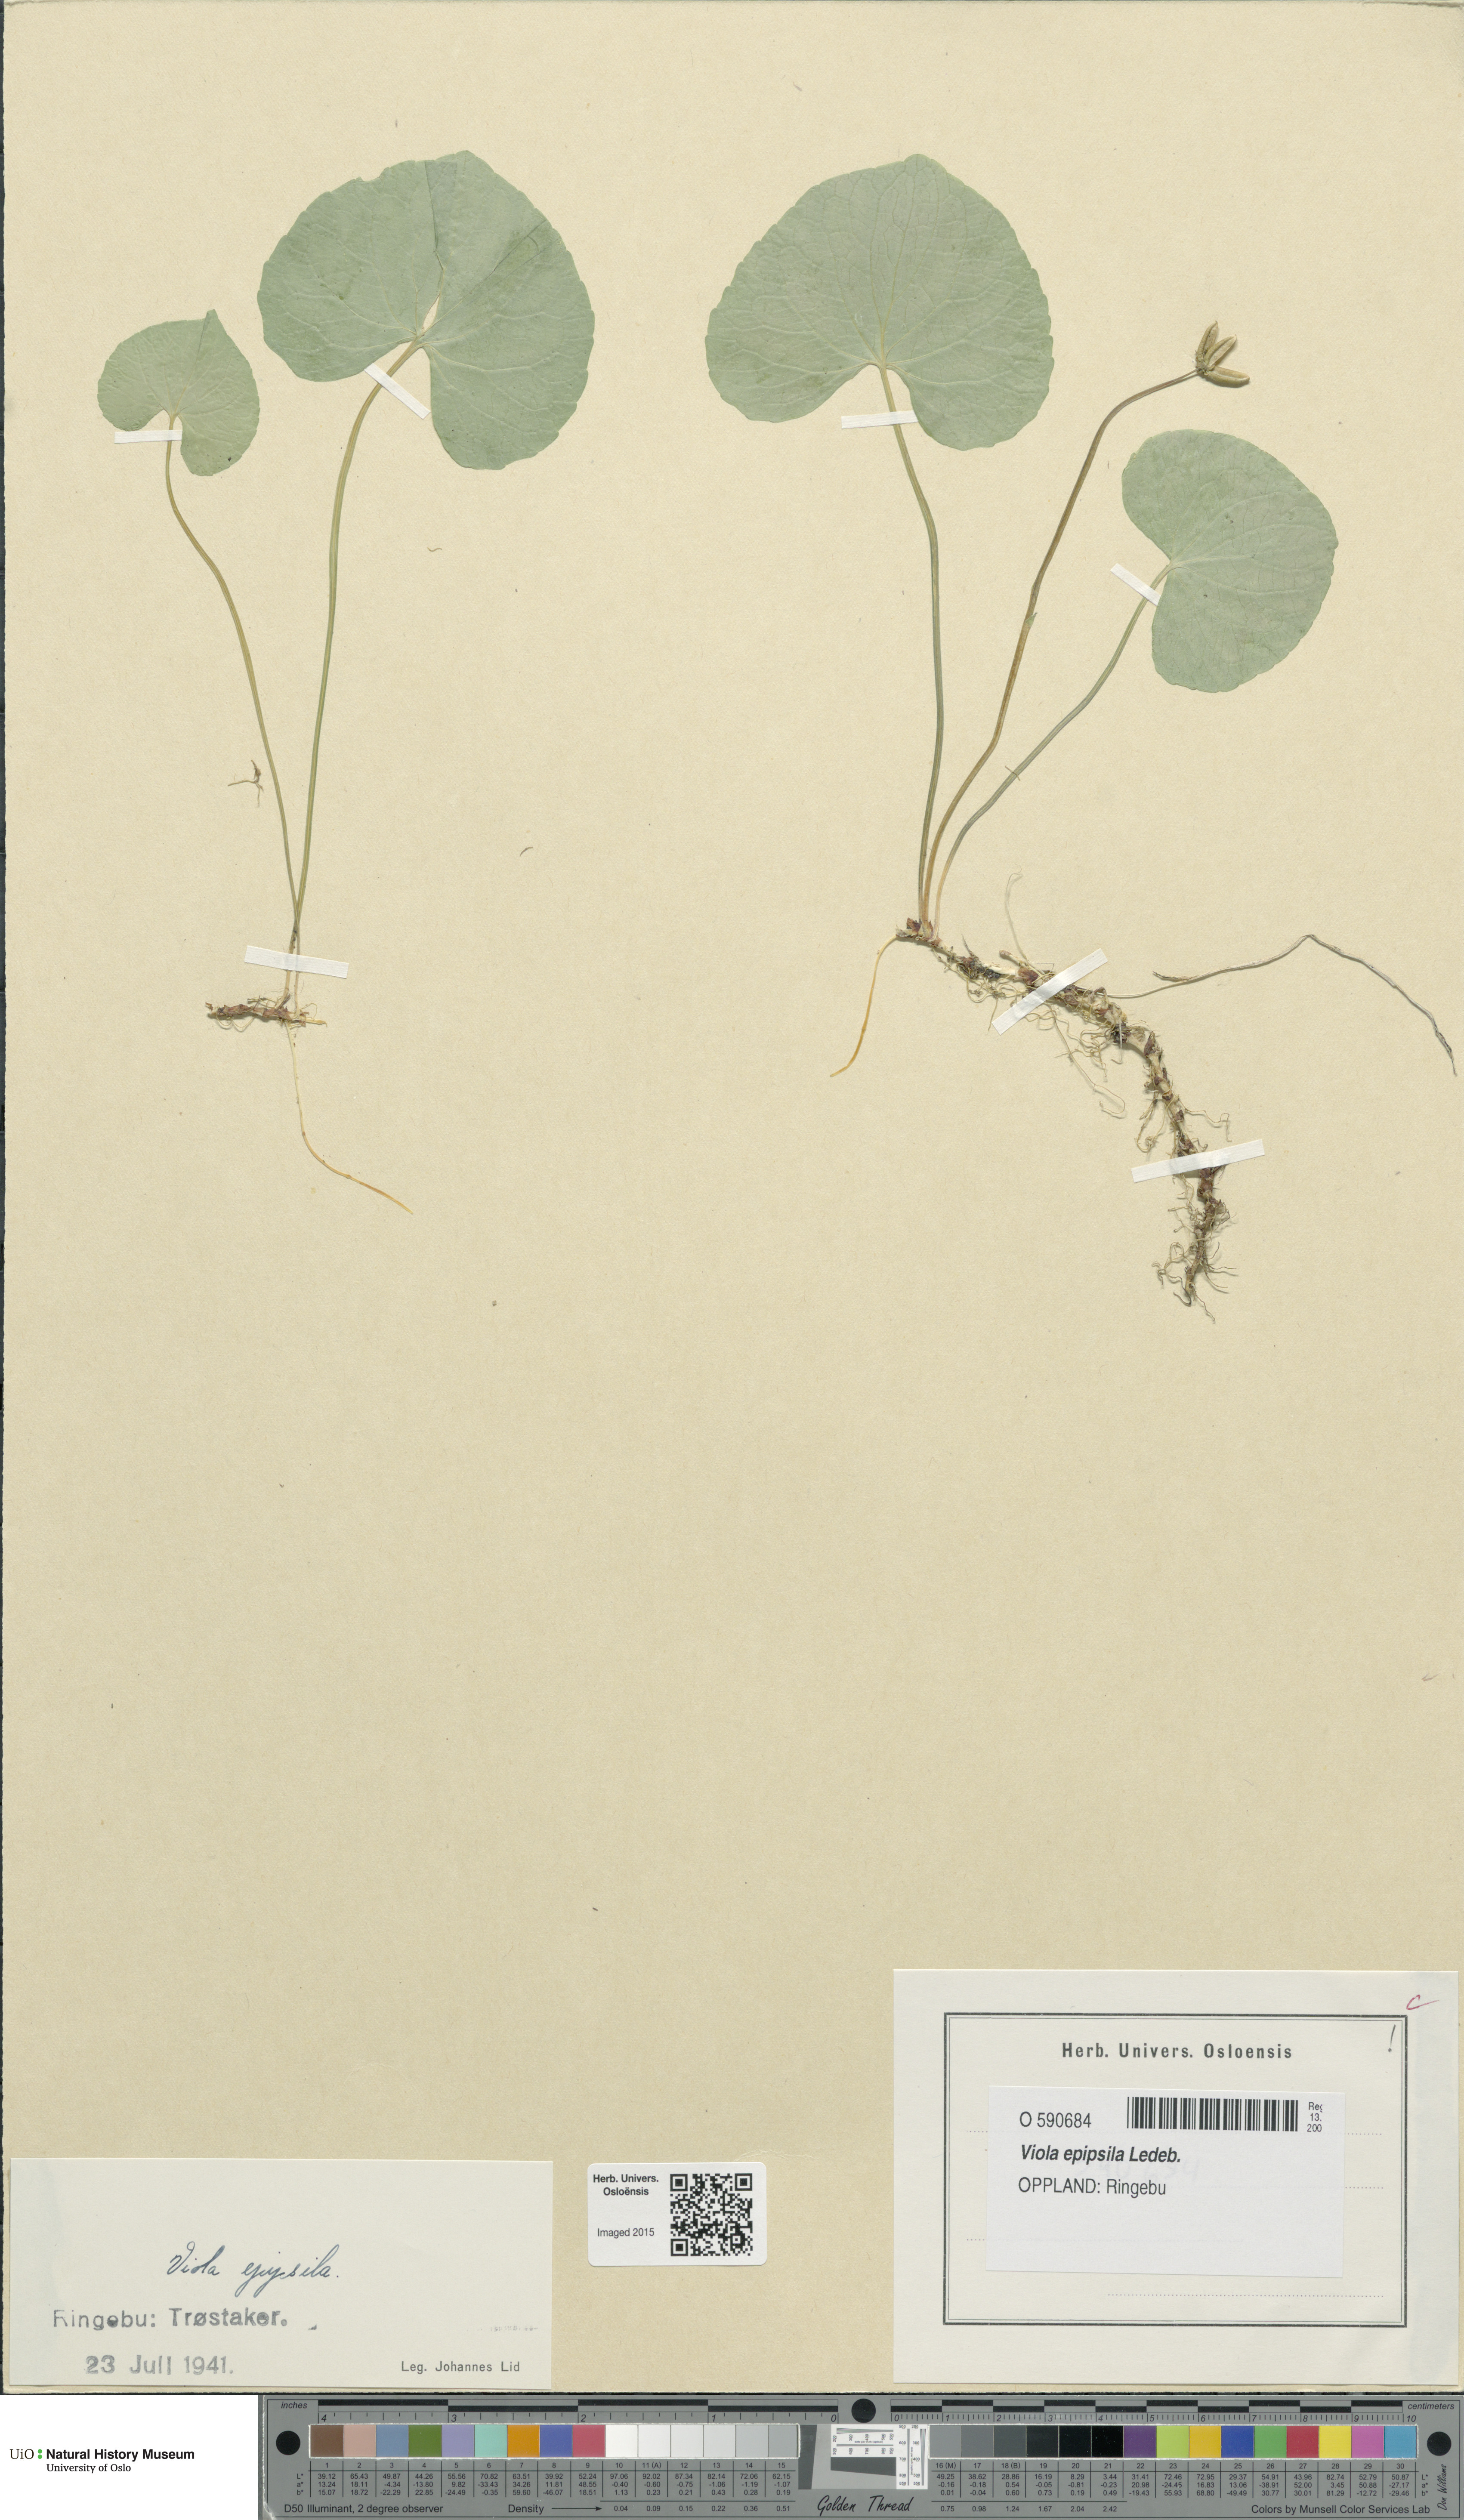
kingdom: Plantae
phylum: Tracheophyta
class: Magnoliopsida
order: Malpighiales
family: Violaceae
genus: Viola
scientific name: Viola epipsila
